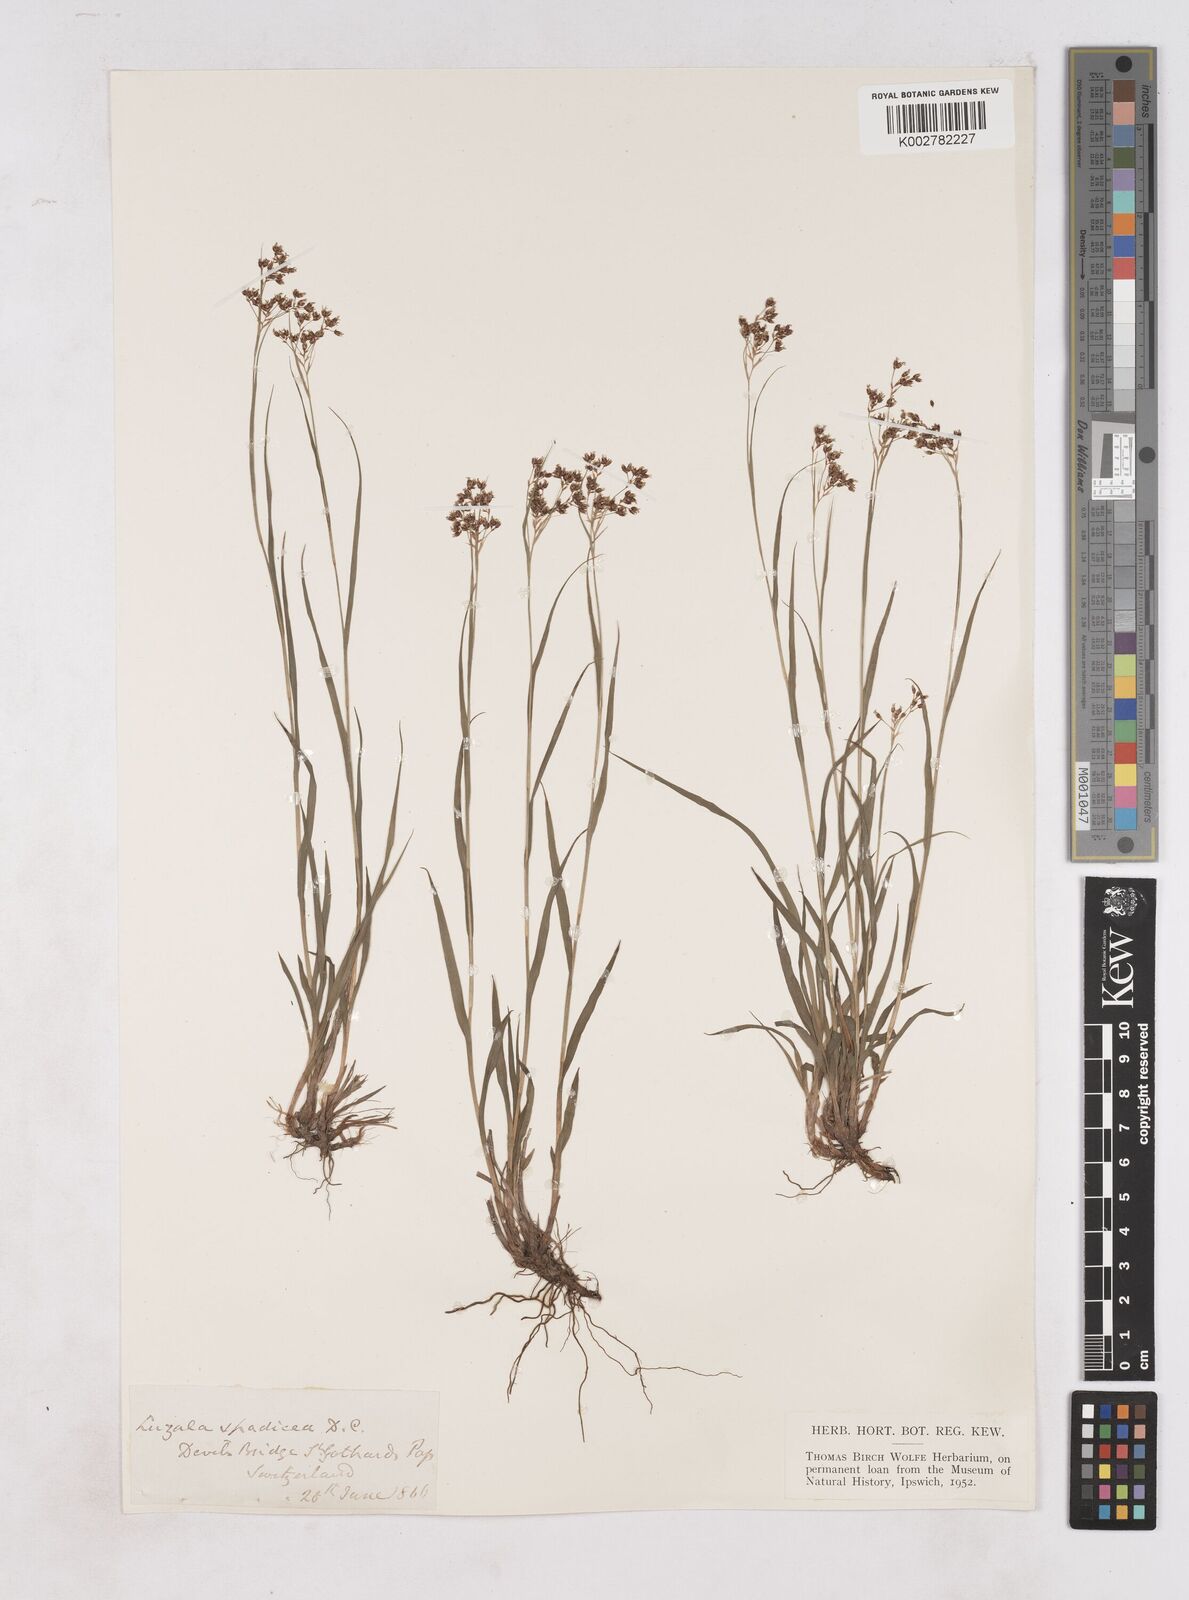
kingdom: Plantae
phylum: Tracheophyta
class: Liliopsida
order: Poales
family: Juncaceae
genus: Luzula
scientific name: Luzula alpinopilosa
